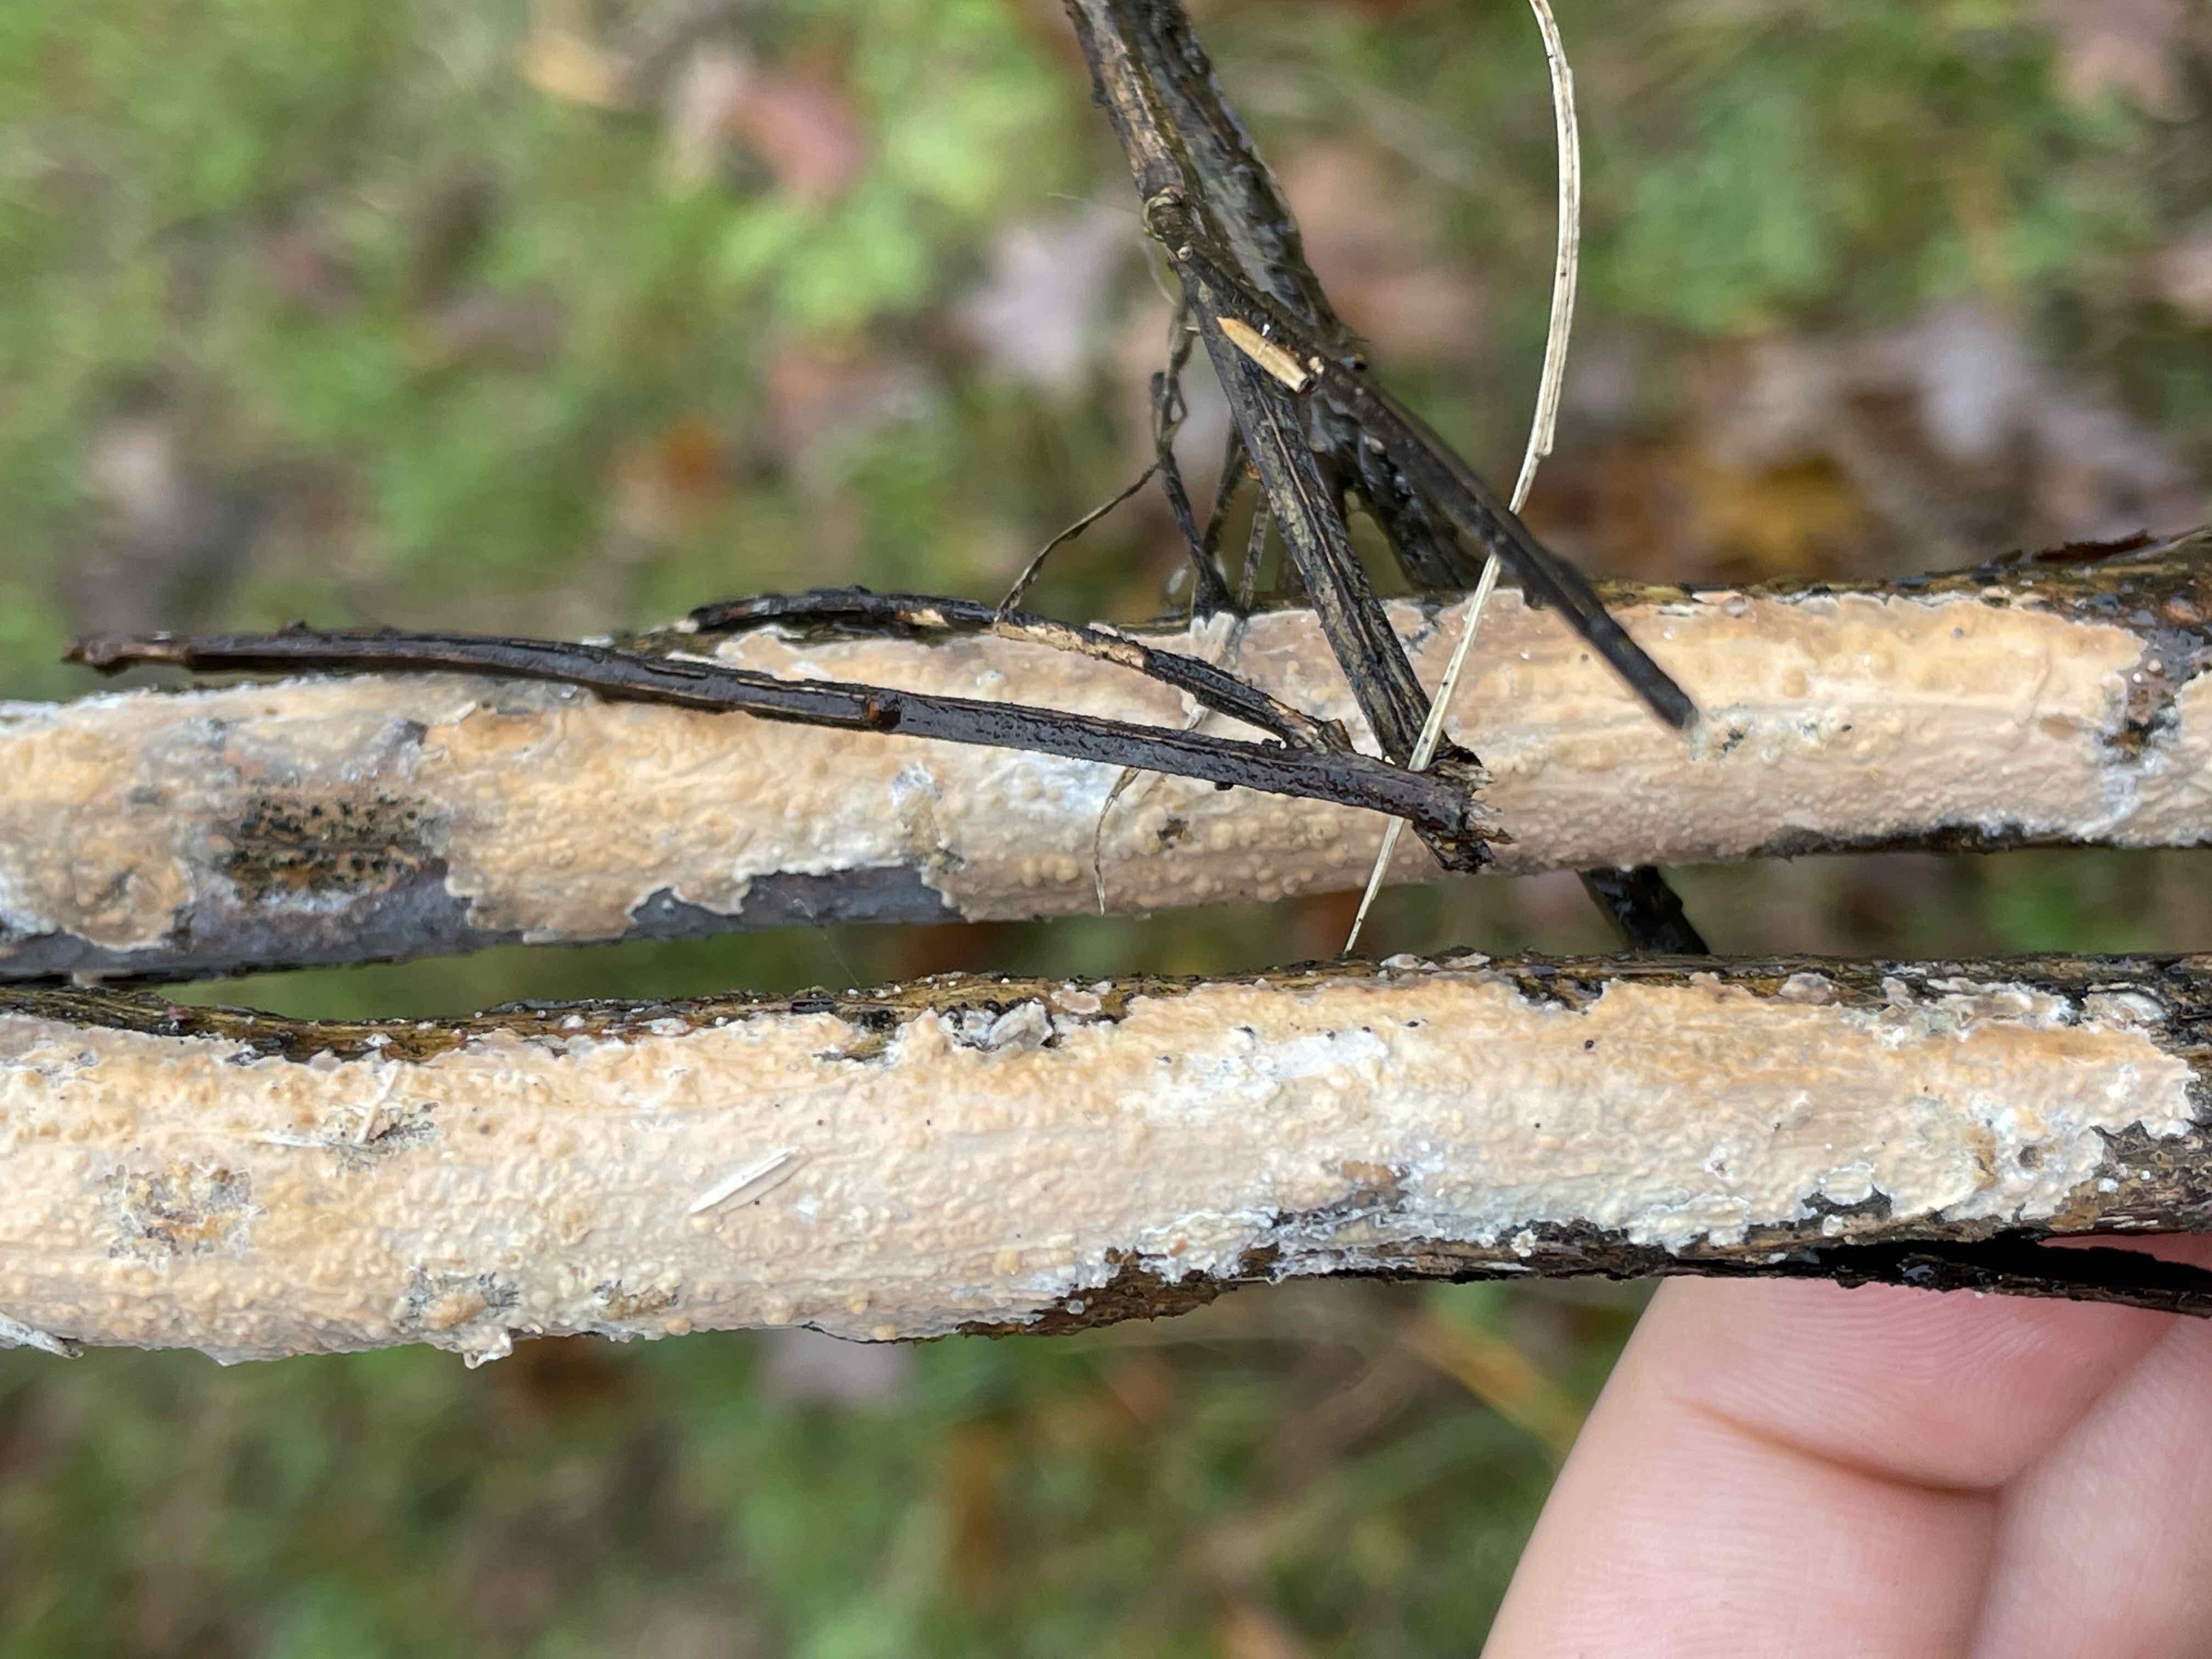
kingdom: Fungi
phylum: Basidiomycota
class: Agaricomycetes
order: Russulales
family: Peniophoraceae
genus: Peniophora
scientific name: Peniophora incarnata
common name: laksefarvet voksskind
